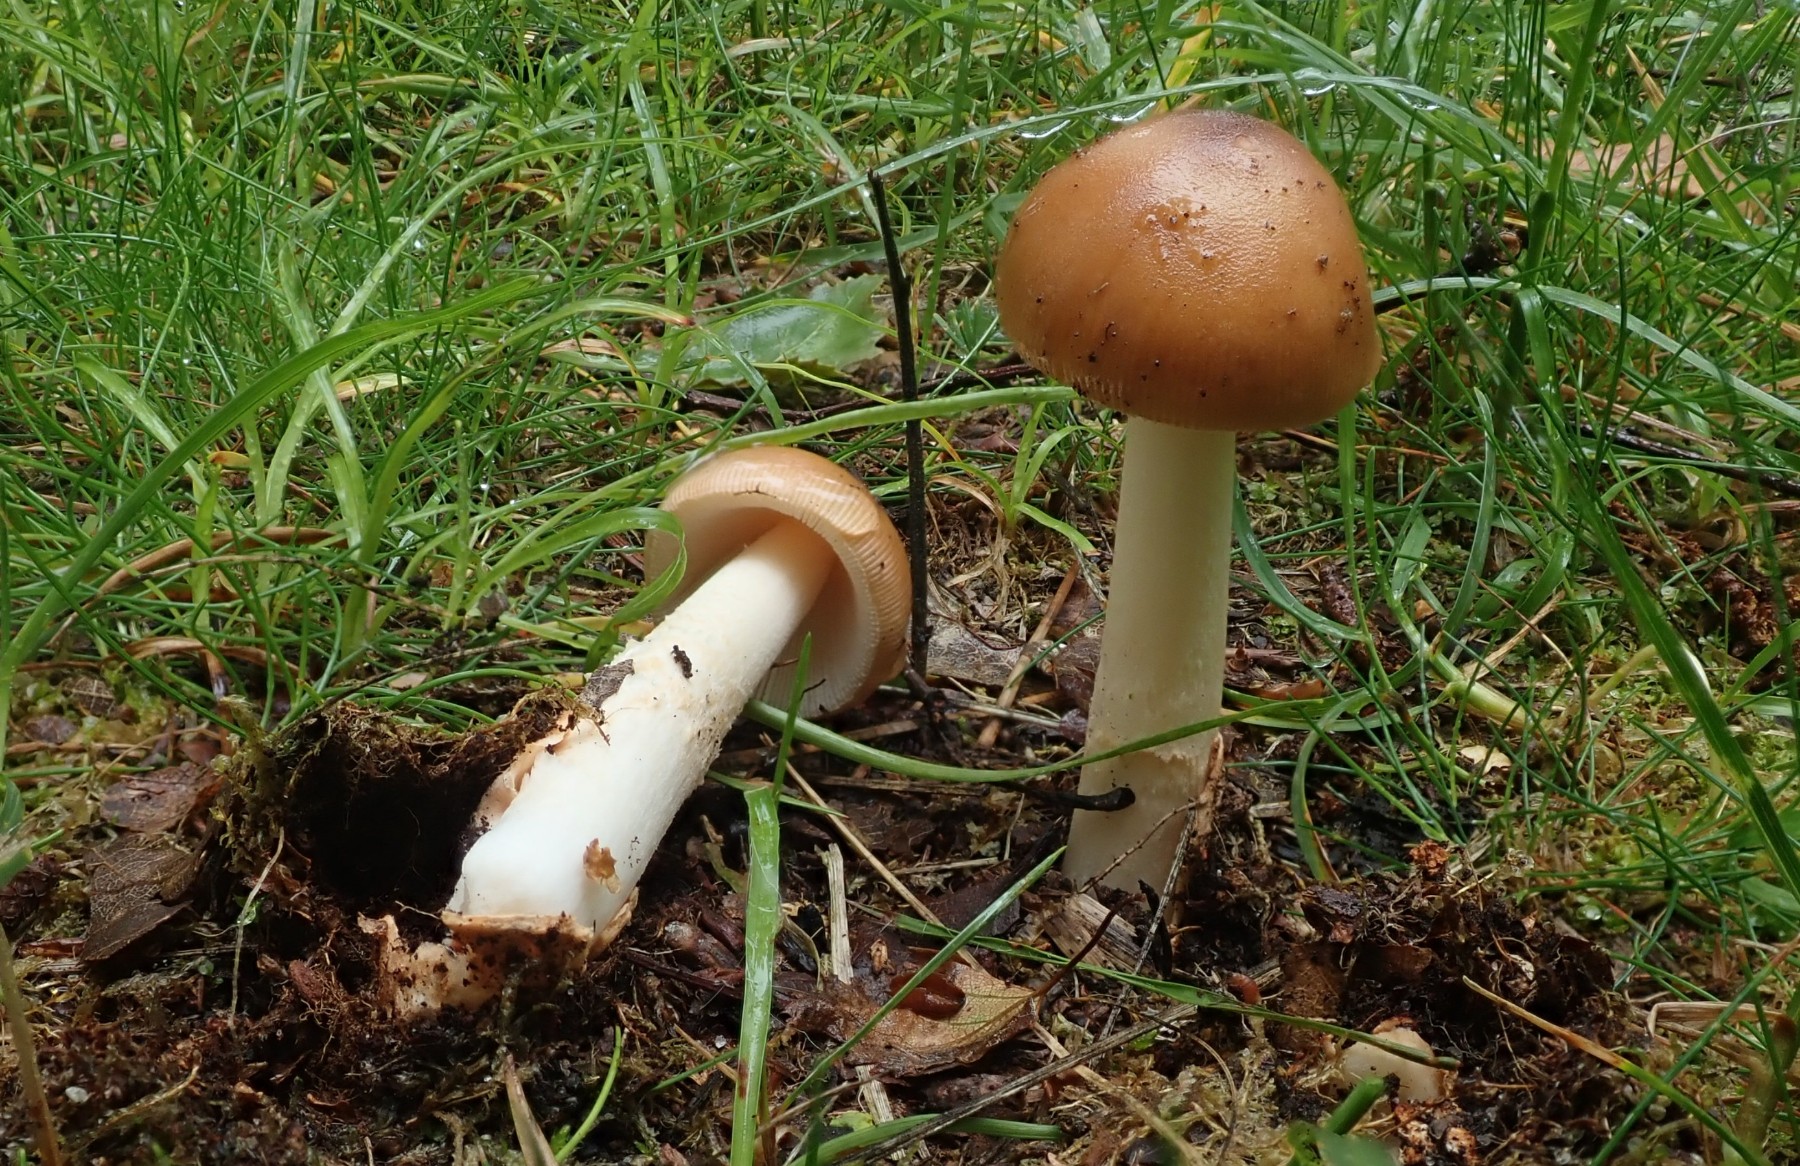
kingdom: Fungi
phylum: Basidiomycota
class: Agaricomycetes
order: Agaricales
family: Amanitaceae
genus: Amanita
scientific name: Amanita fulva
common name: brun kam-fluesvamp
